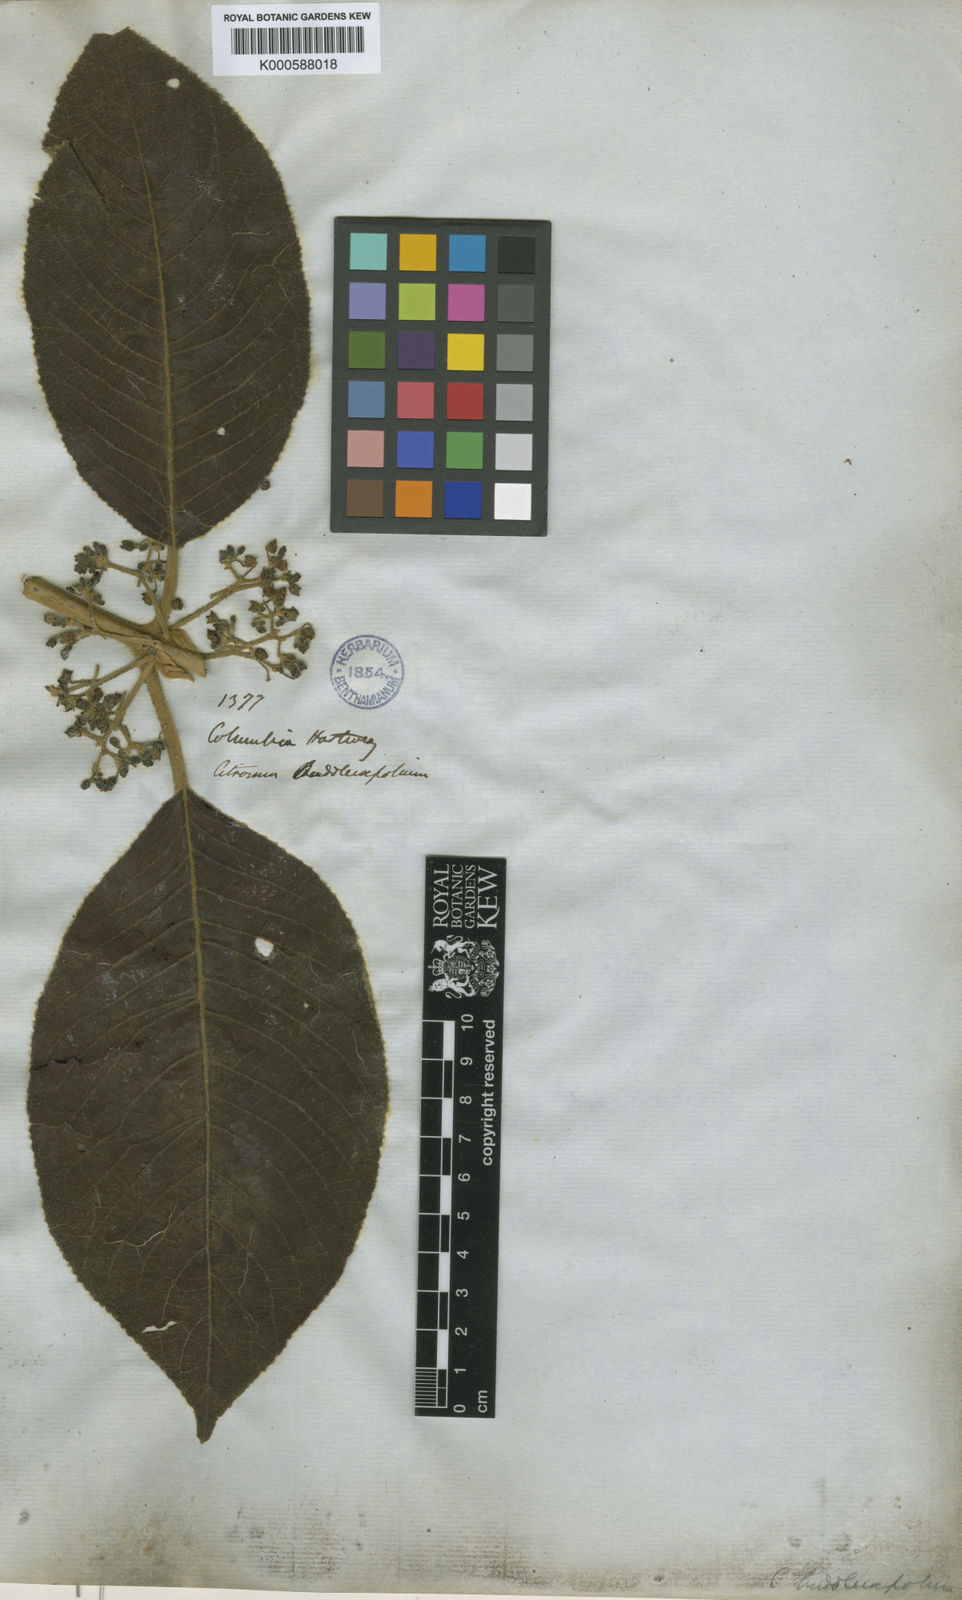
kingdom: Plantae
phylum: Tracheophyta
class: Magnoliopsida
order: Laurales
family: Siparunaceae
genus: Siparuna
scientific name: Siparuna
